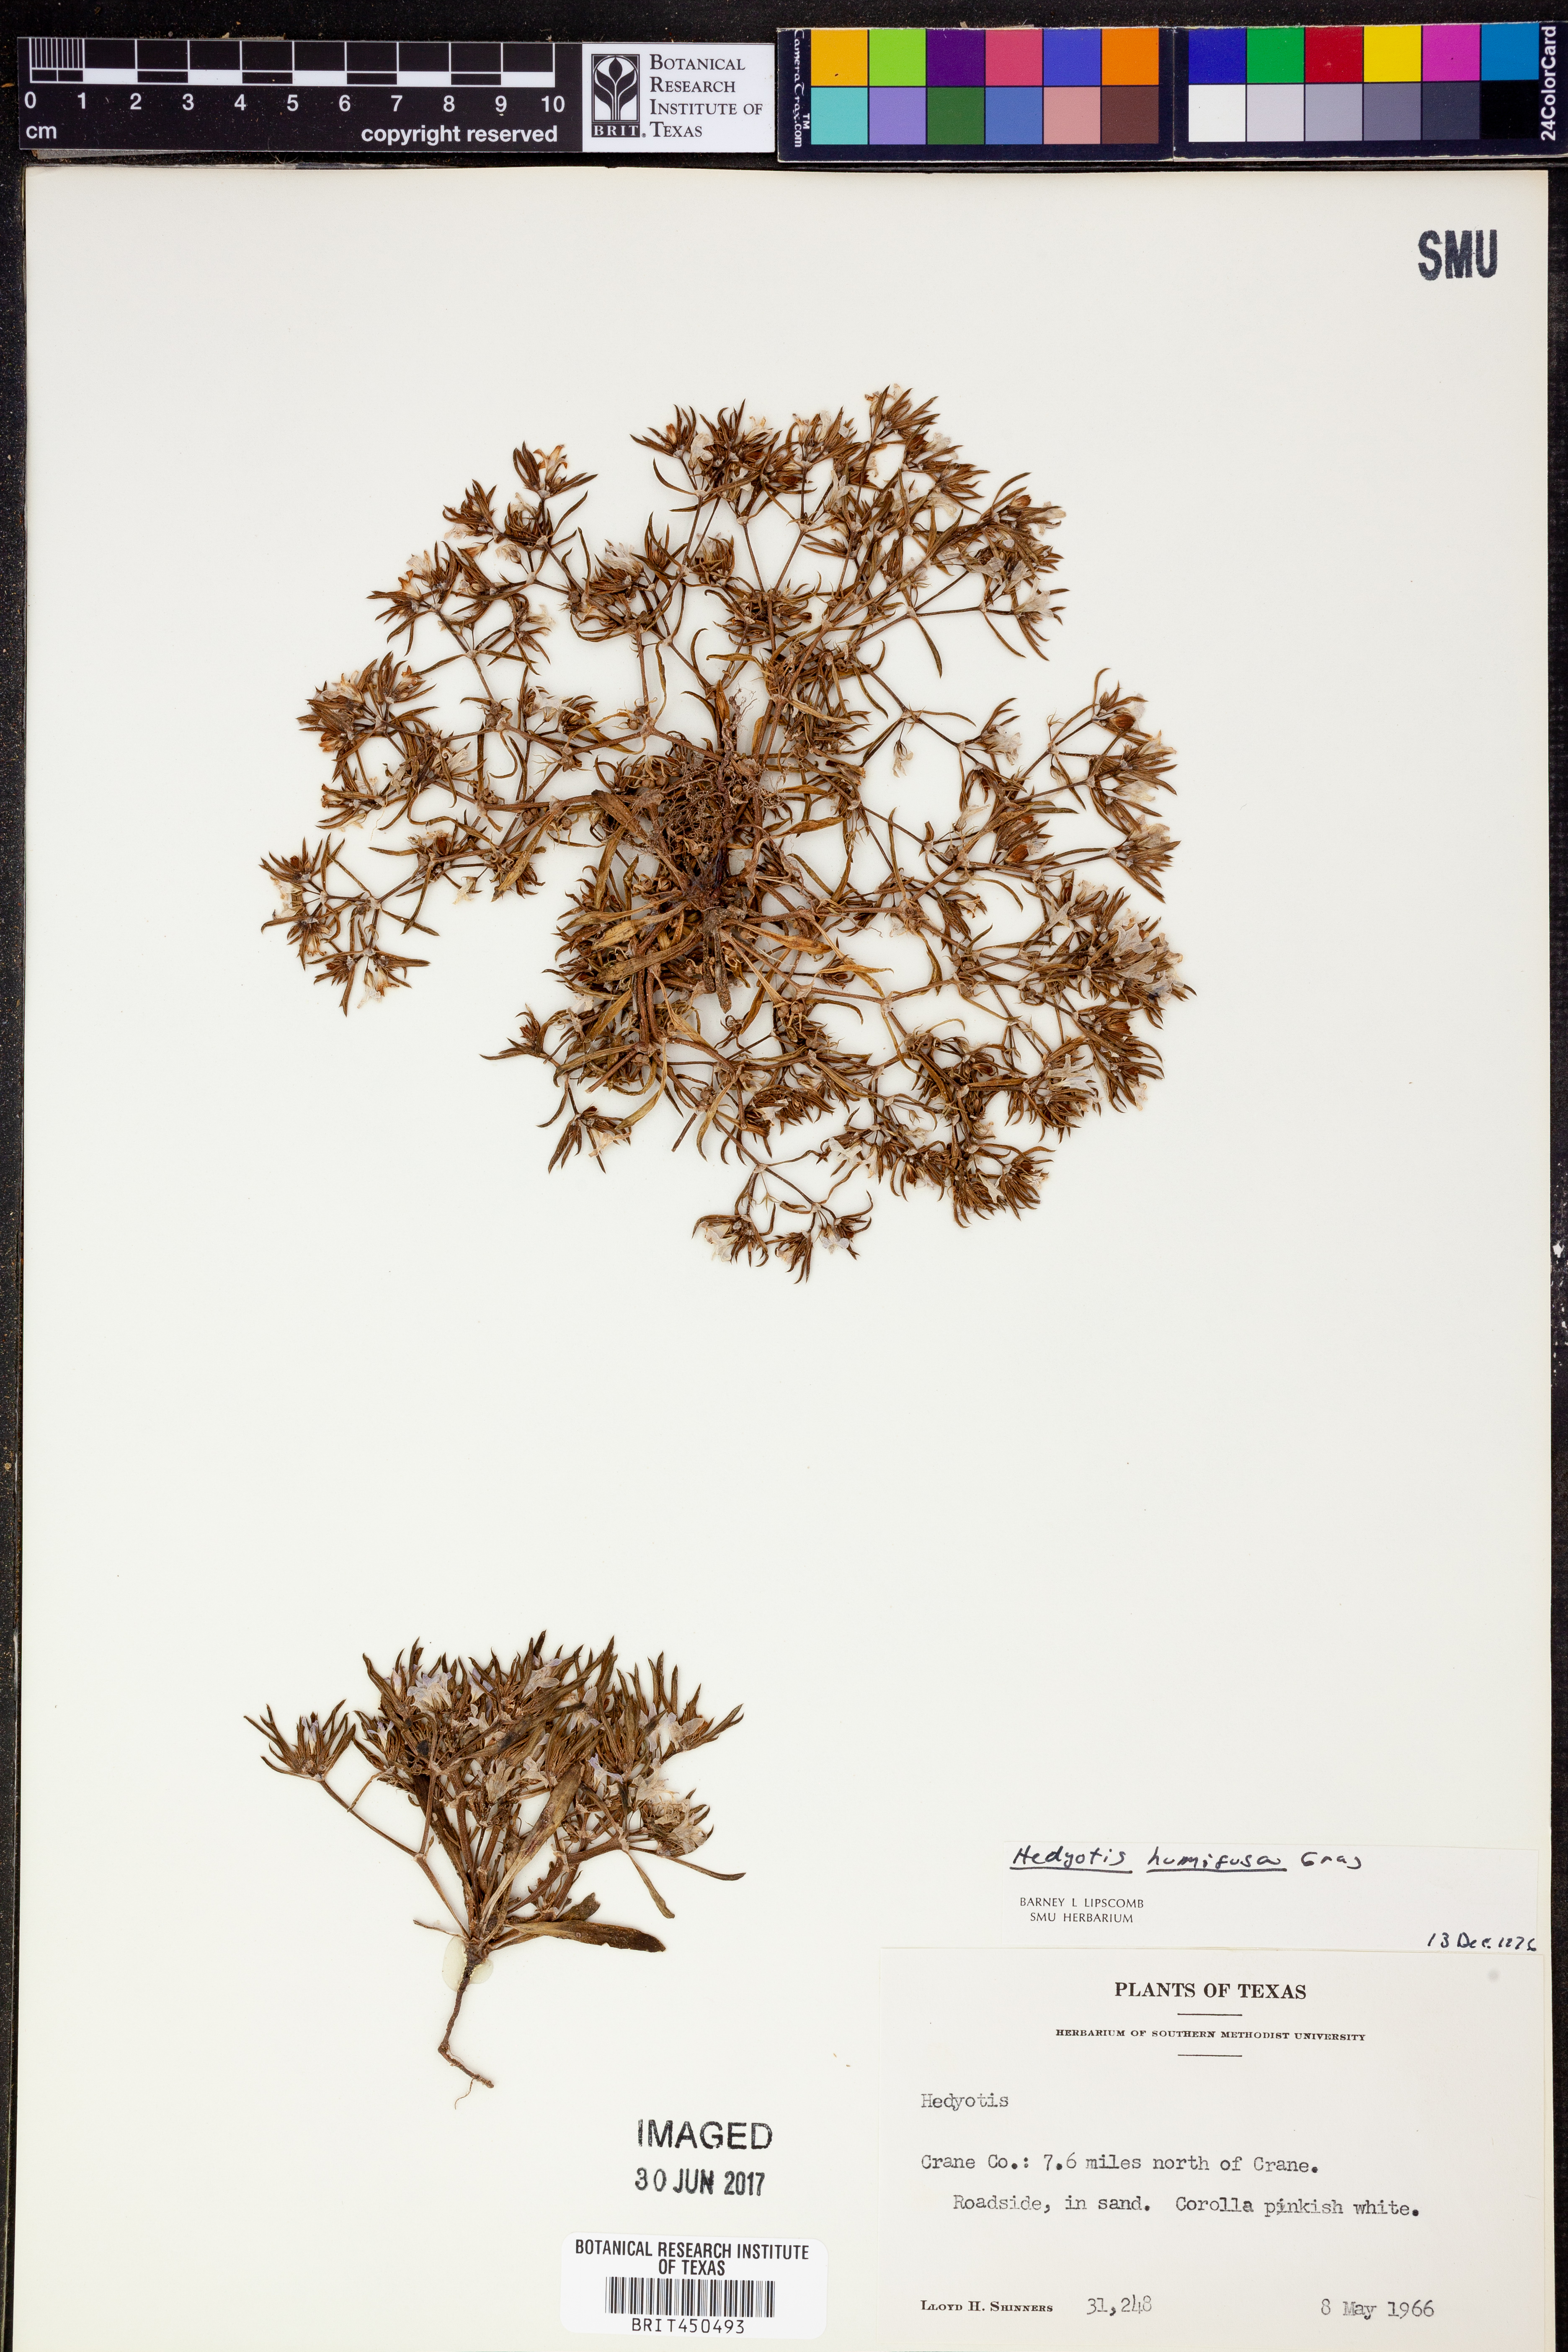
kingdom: Plantae
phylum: Tracheophyta
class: Magnoliopsida
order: Gentianales
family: Rubiaceae
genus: Houstonia
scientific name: Houstonia humifusa
